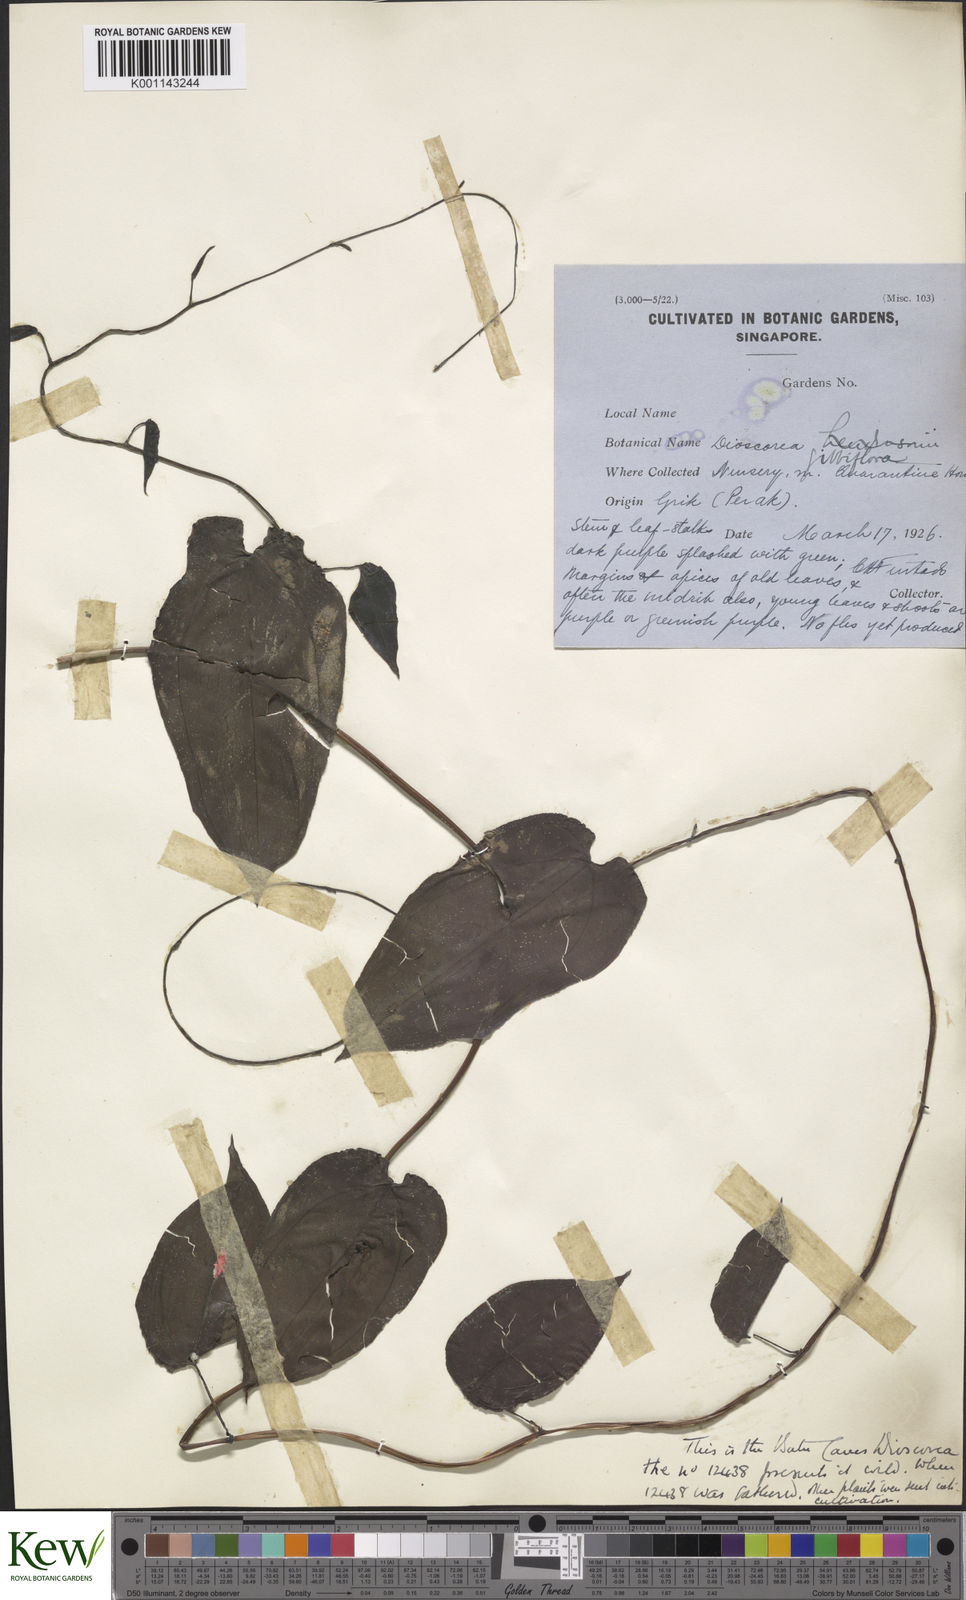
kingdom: Plantae
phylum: Tracheophyta
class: Liliopsida
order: Dioscoreales
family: Dioscoreaceae
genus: Dioscorea
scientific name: Dioscorea filiformis
